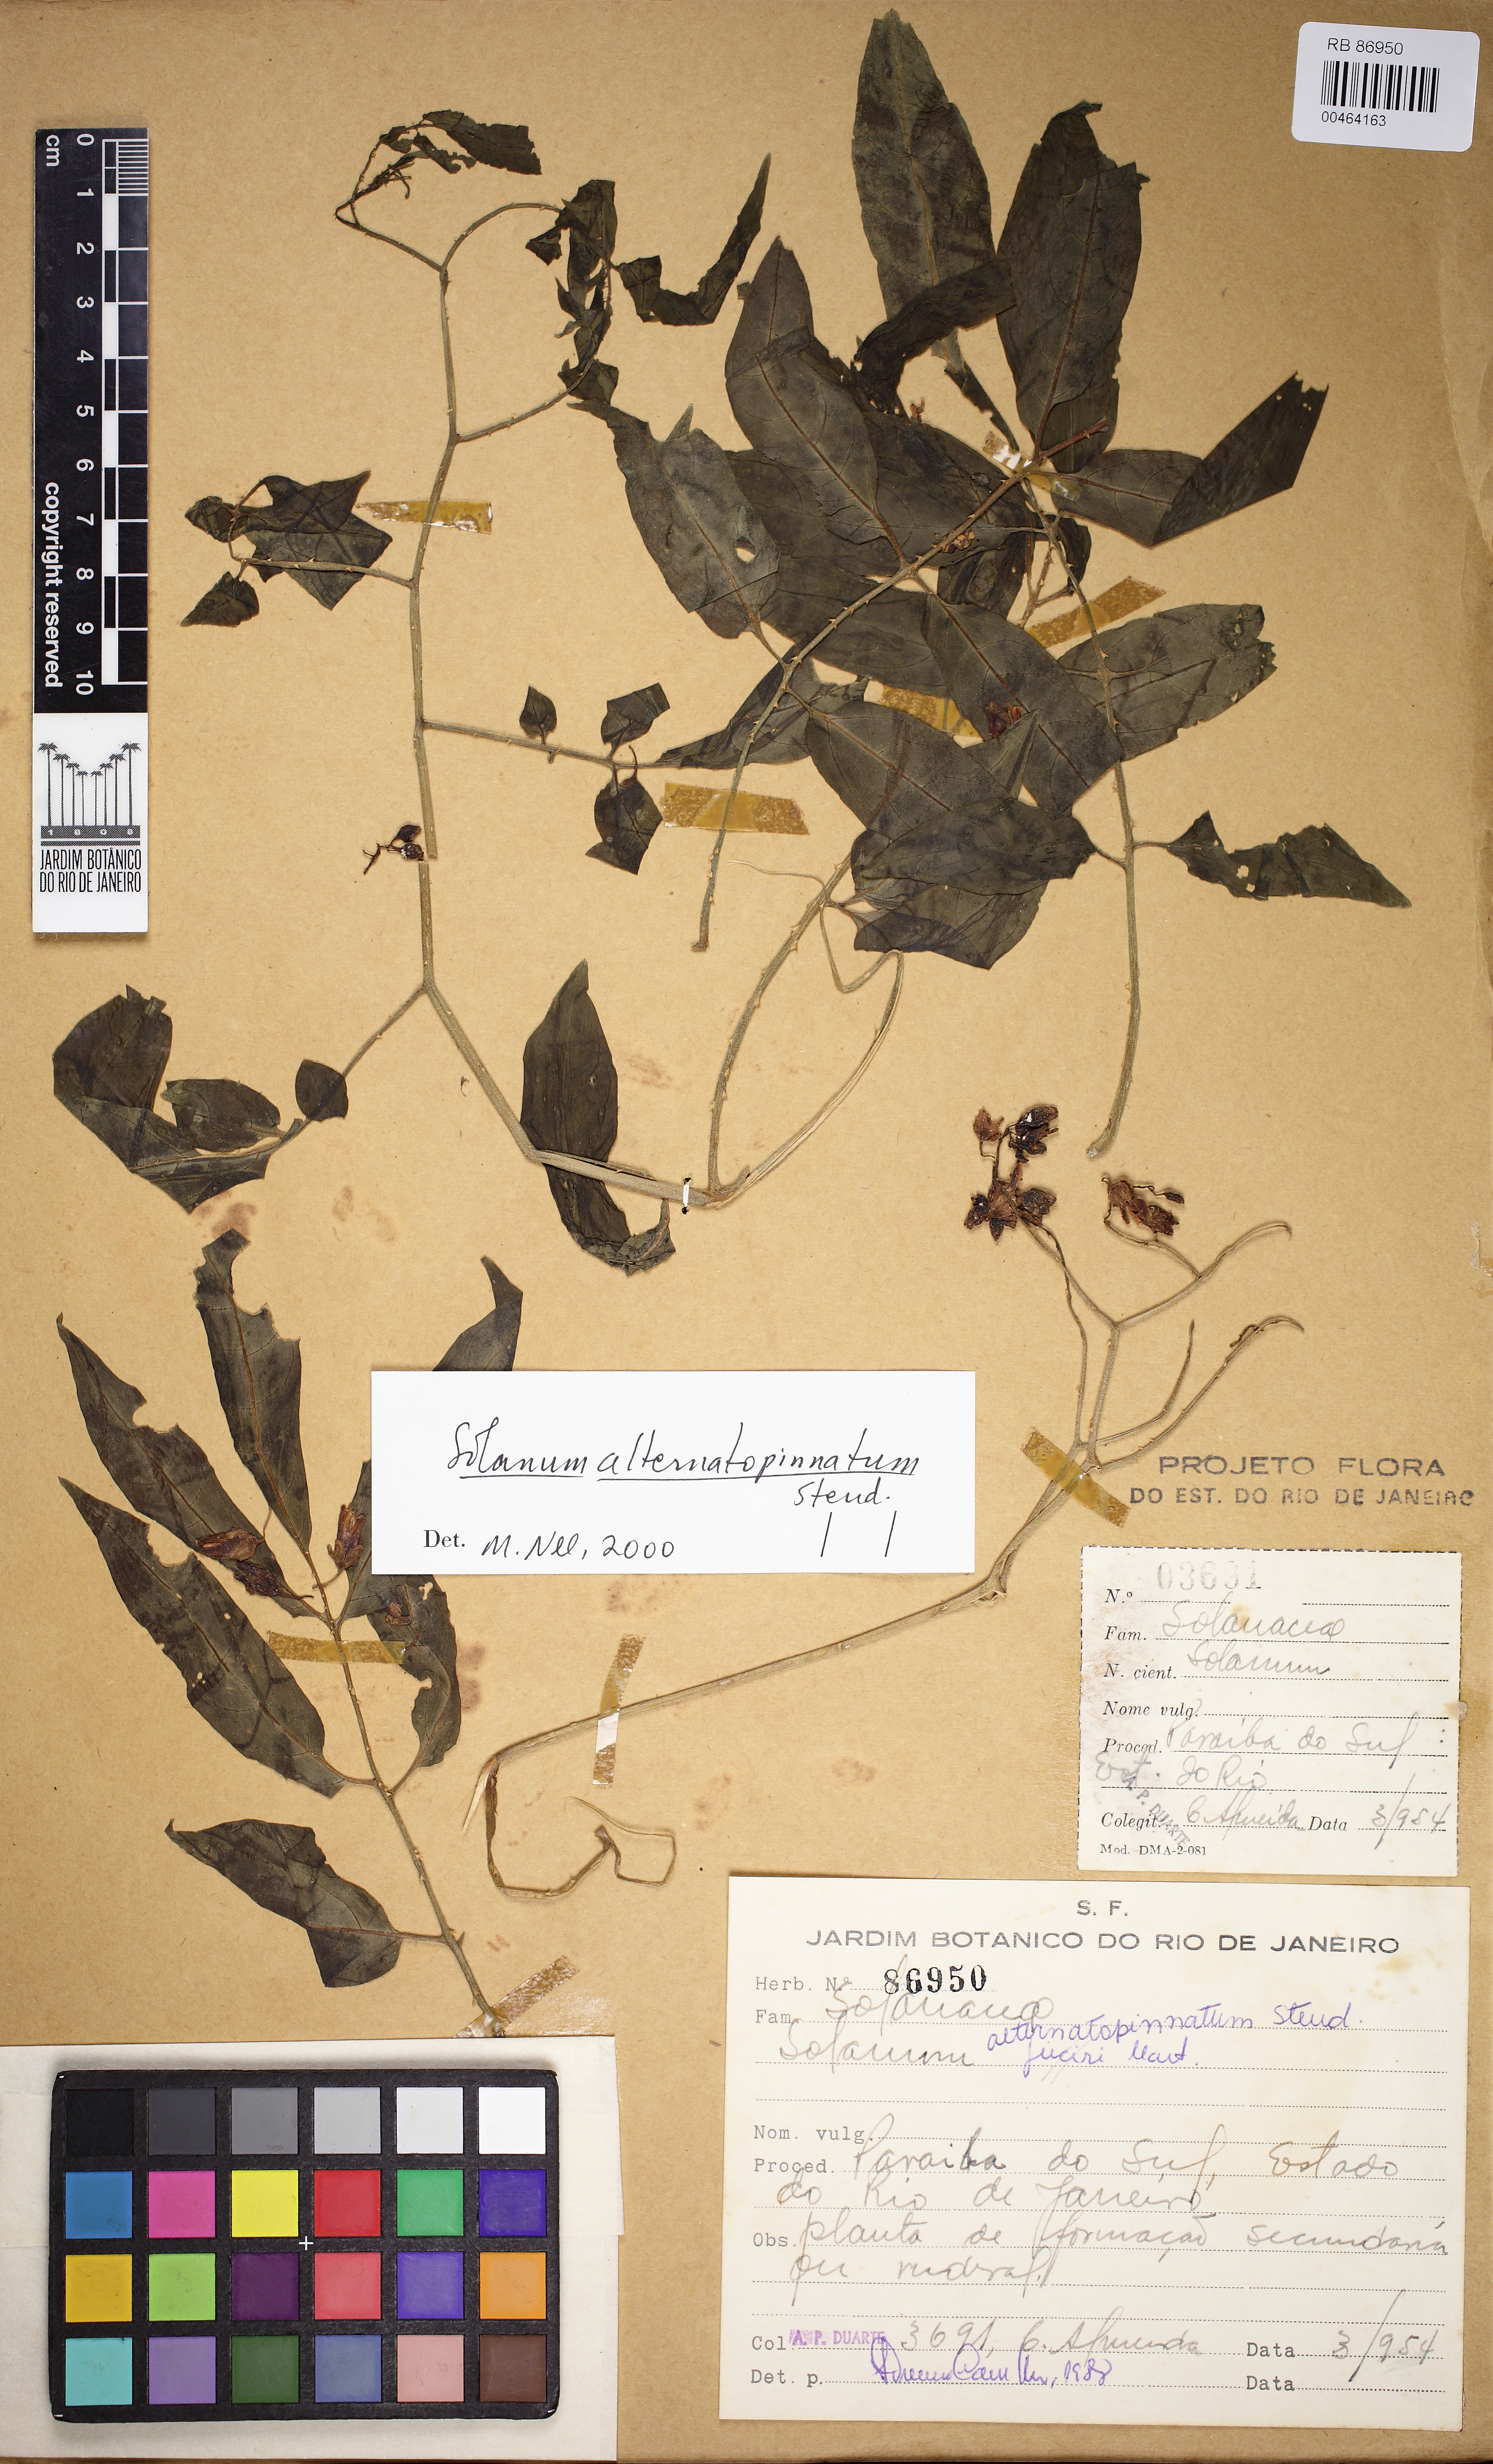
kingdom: Plantae
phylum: Tracheophyta
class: Magnoliopsida
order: Solanales
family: Solanaceae
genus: Solanum
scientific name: Solanum alternatopinnatum
